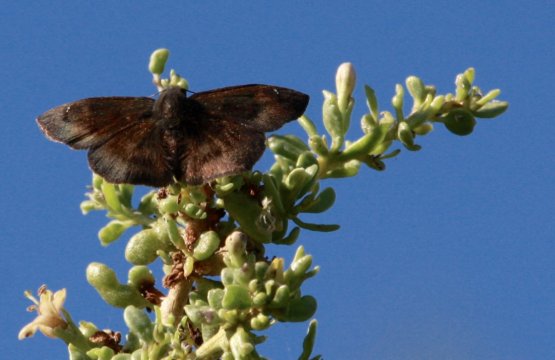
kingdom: Animalia
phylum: Arthropoda
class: Insecta
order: Lepidoptera
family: Hesperiidae
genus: Bolla
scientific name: Bolla clytius
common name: Mottled Bolla
